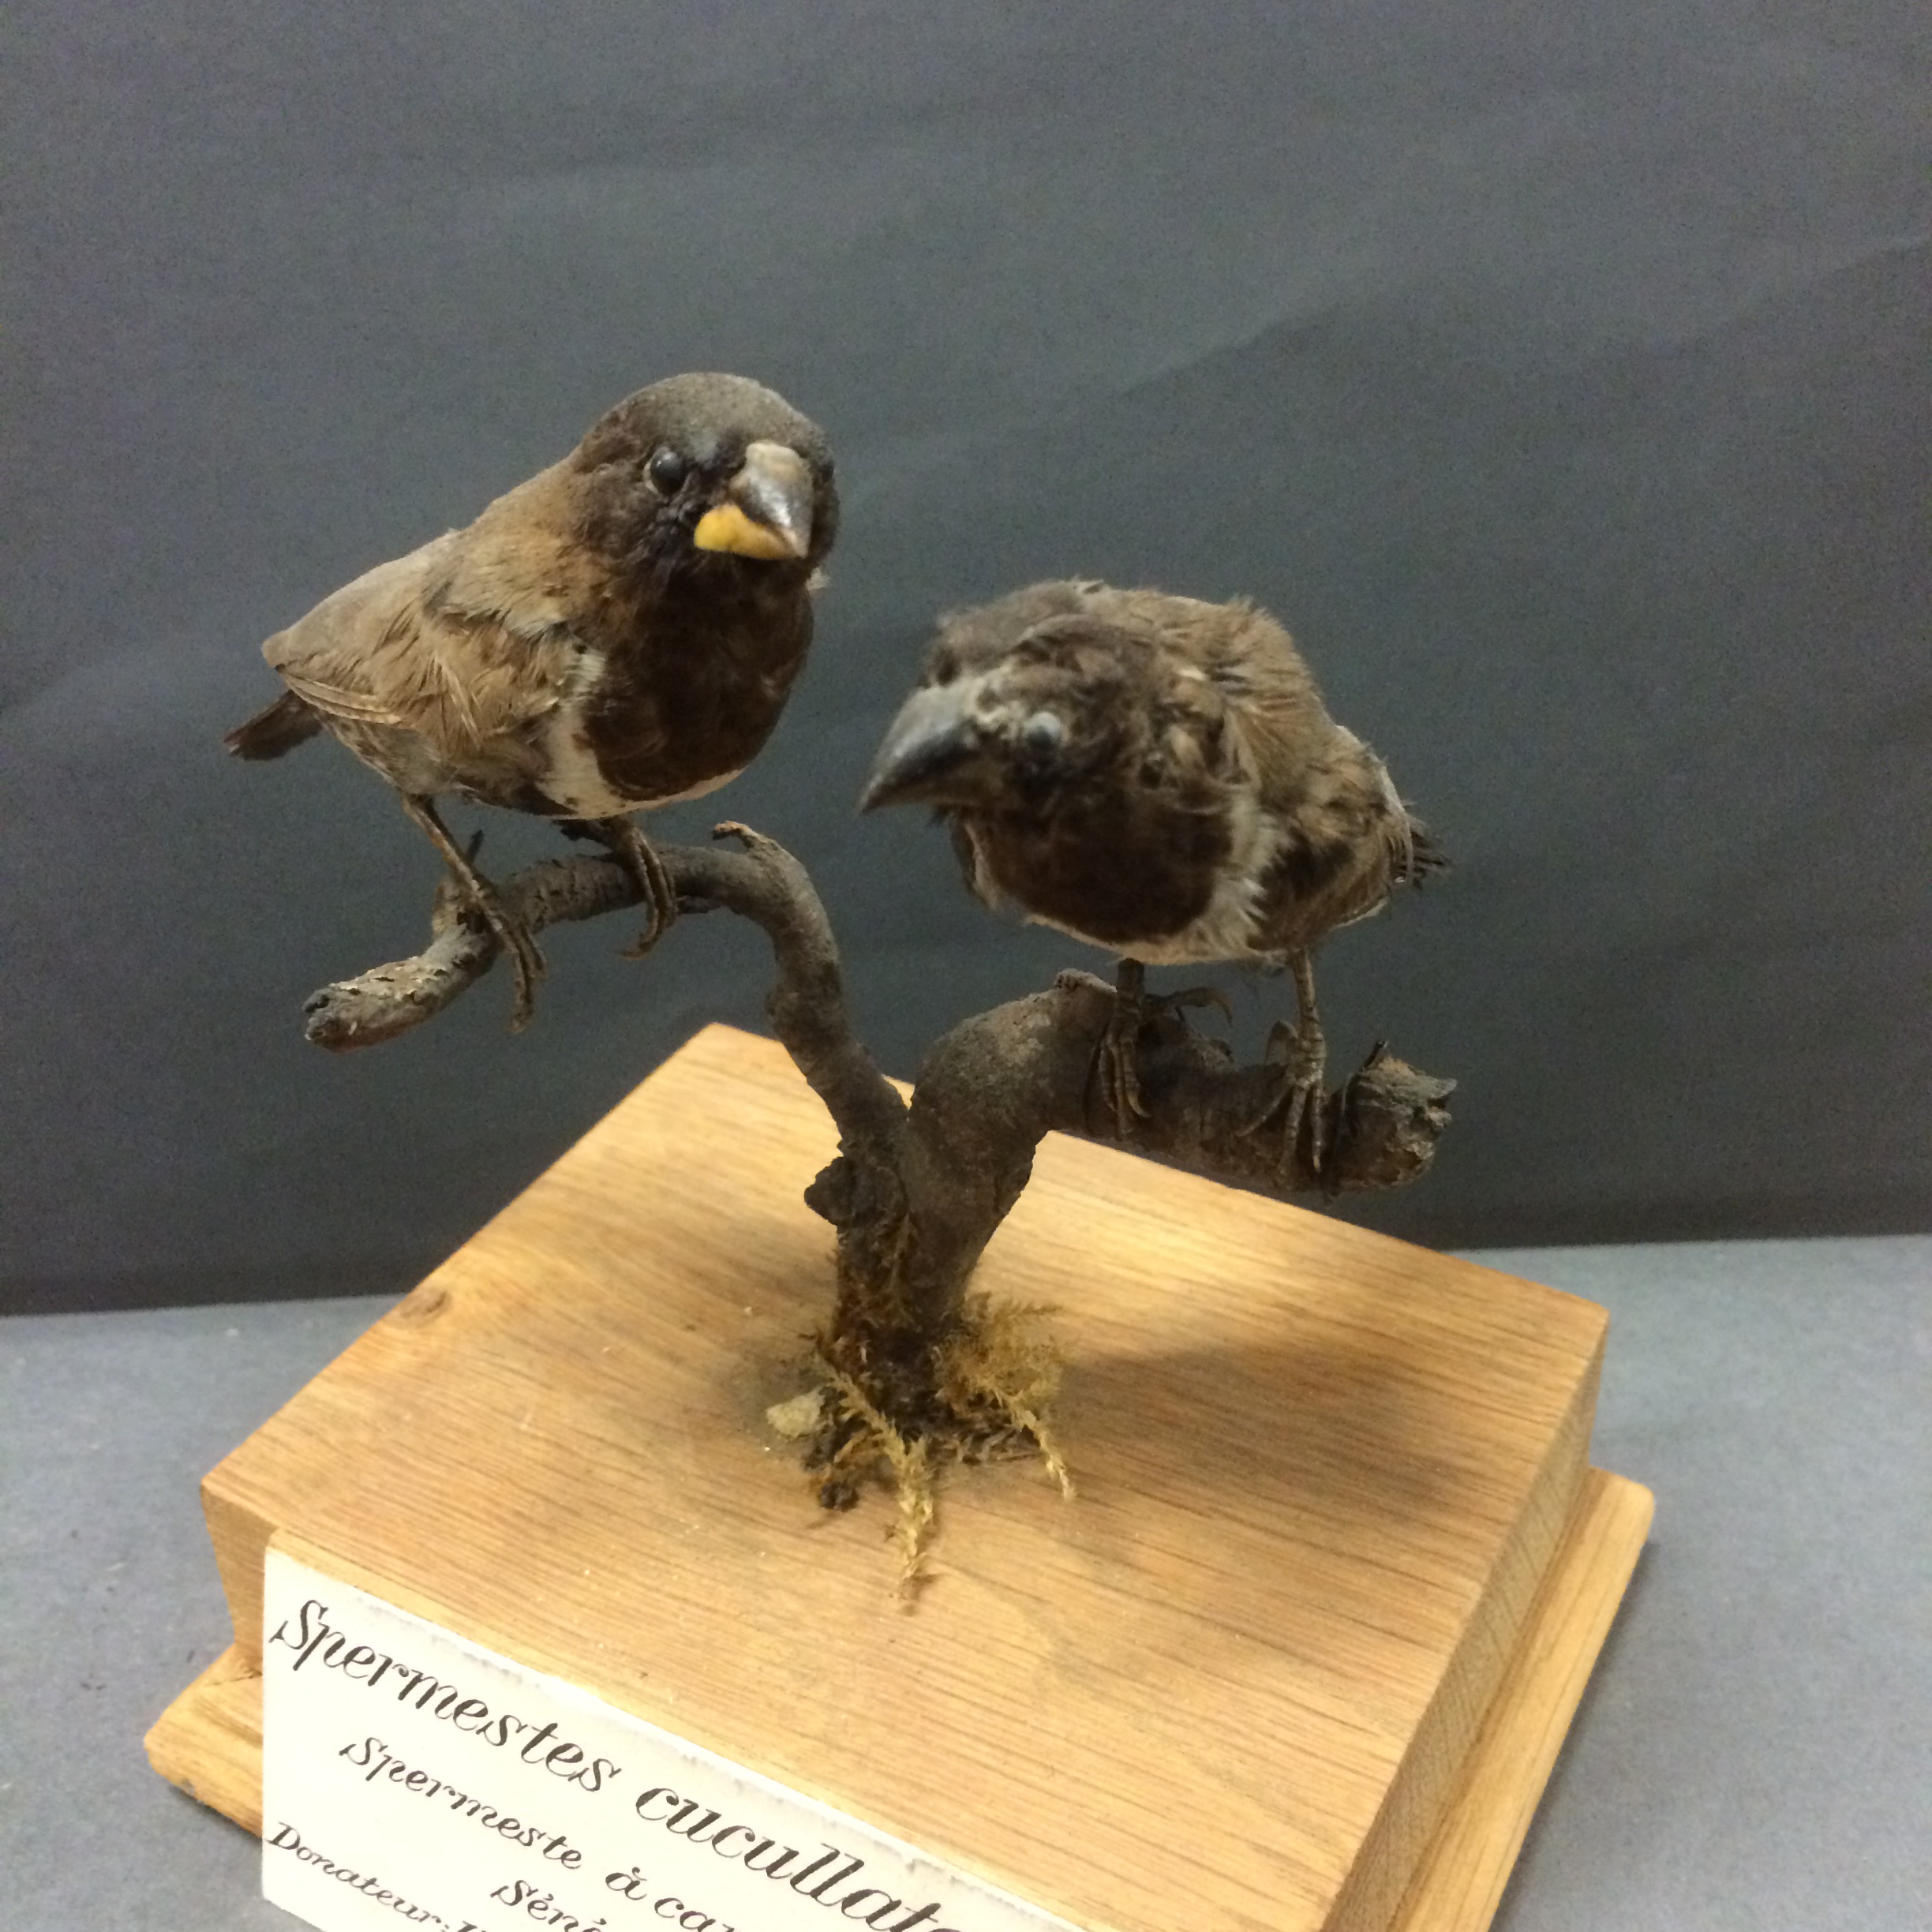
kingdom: Animalia
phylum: Chordata
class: Aves
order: Passeriformes
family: Estrildidae
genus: Lonchura
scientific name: Lonchura cucullata
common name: Bronze mannikin
